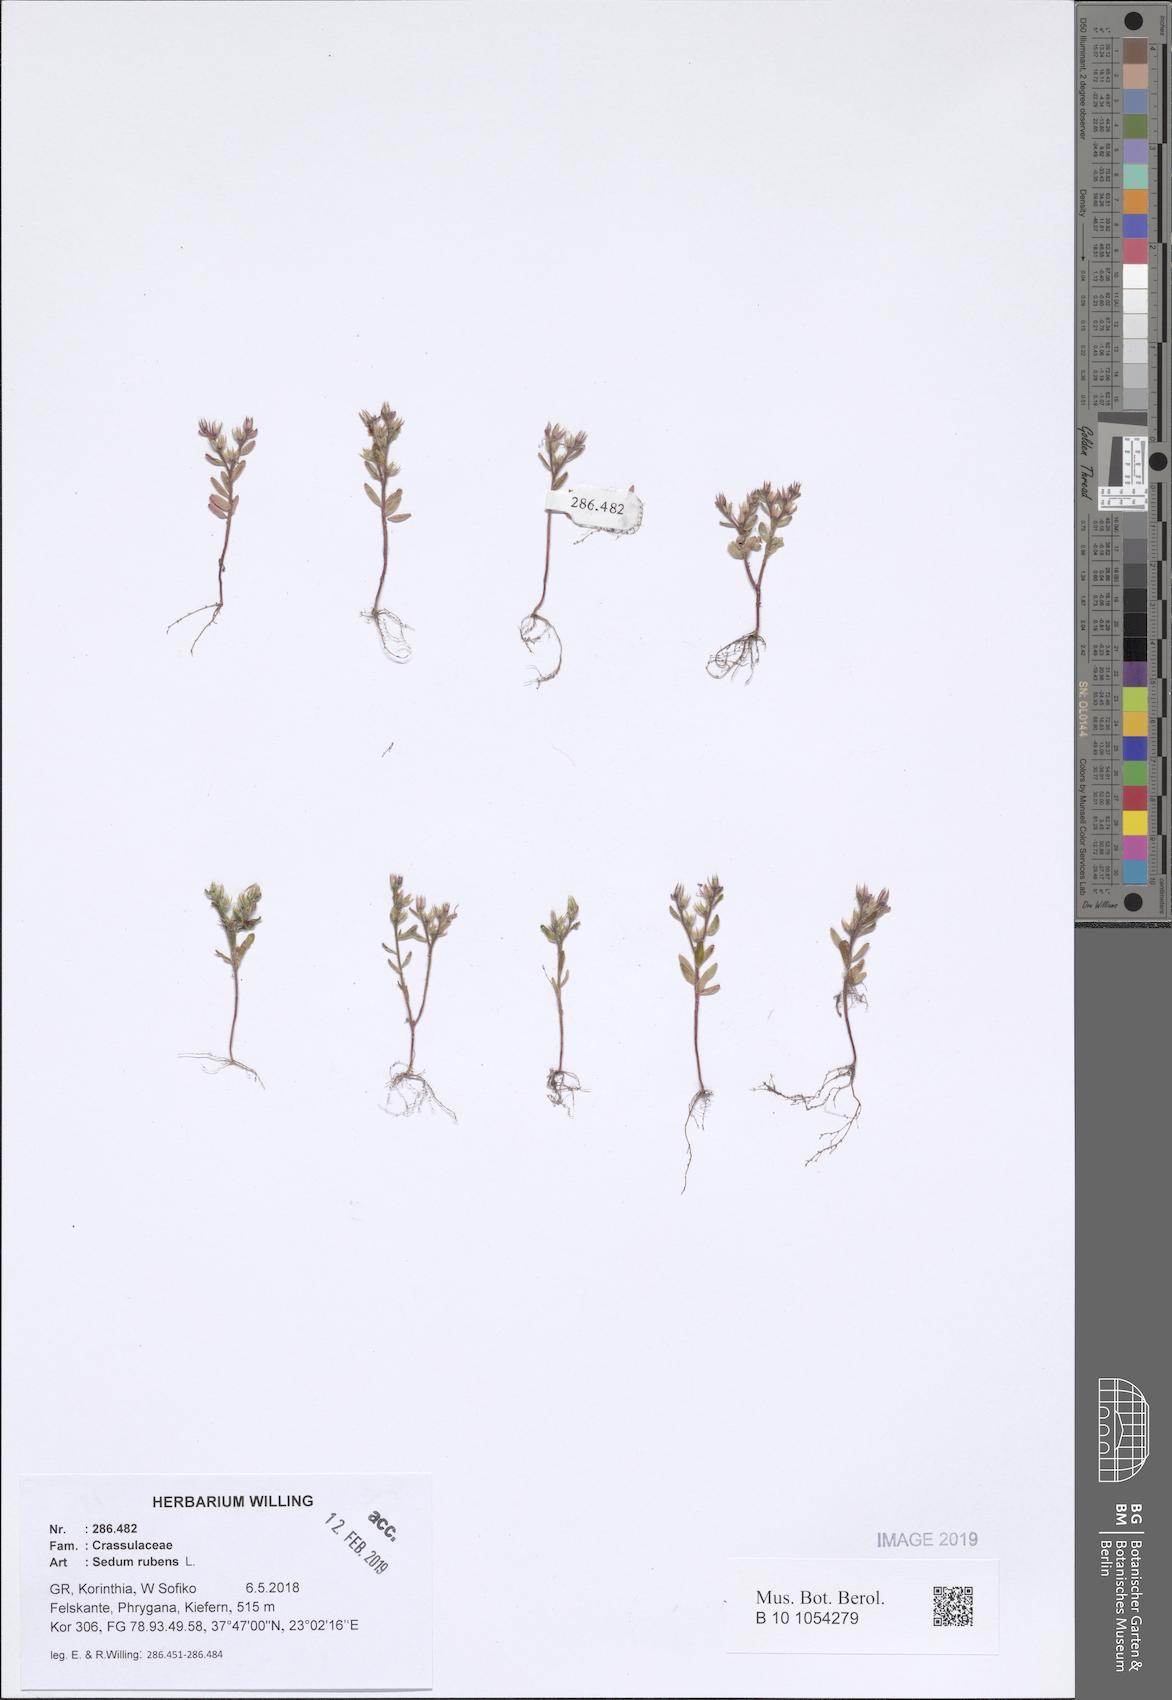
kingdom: Plantae
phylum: Tracheophyta
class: Magnoliopsida
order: Saxifragales
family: Crassulaceae
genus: Sedum
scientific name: Sedum rubens
